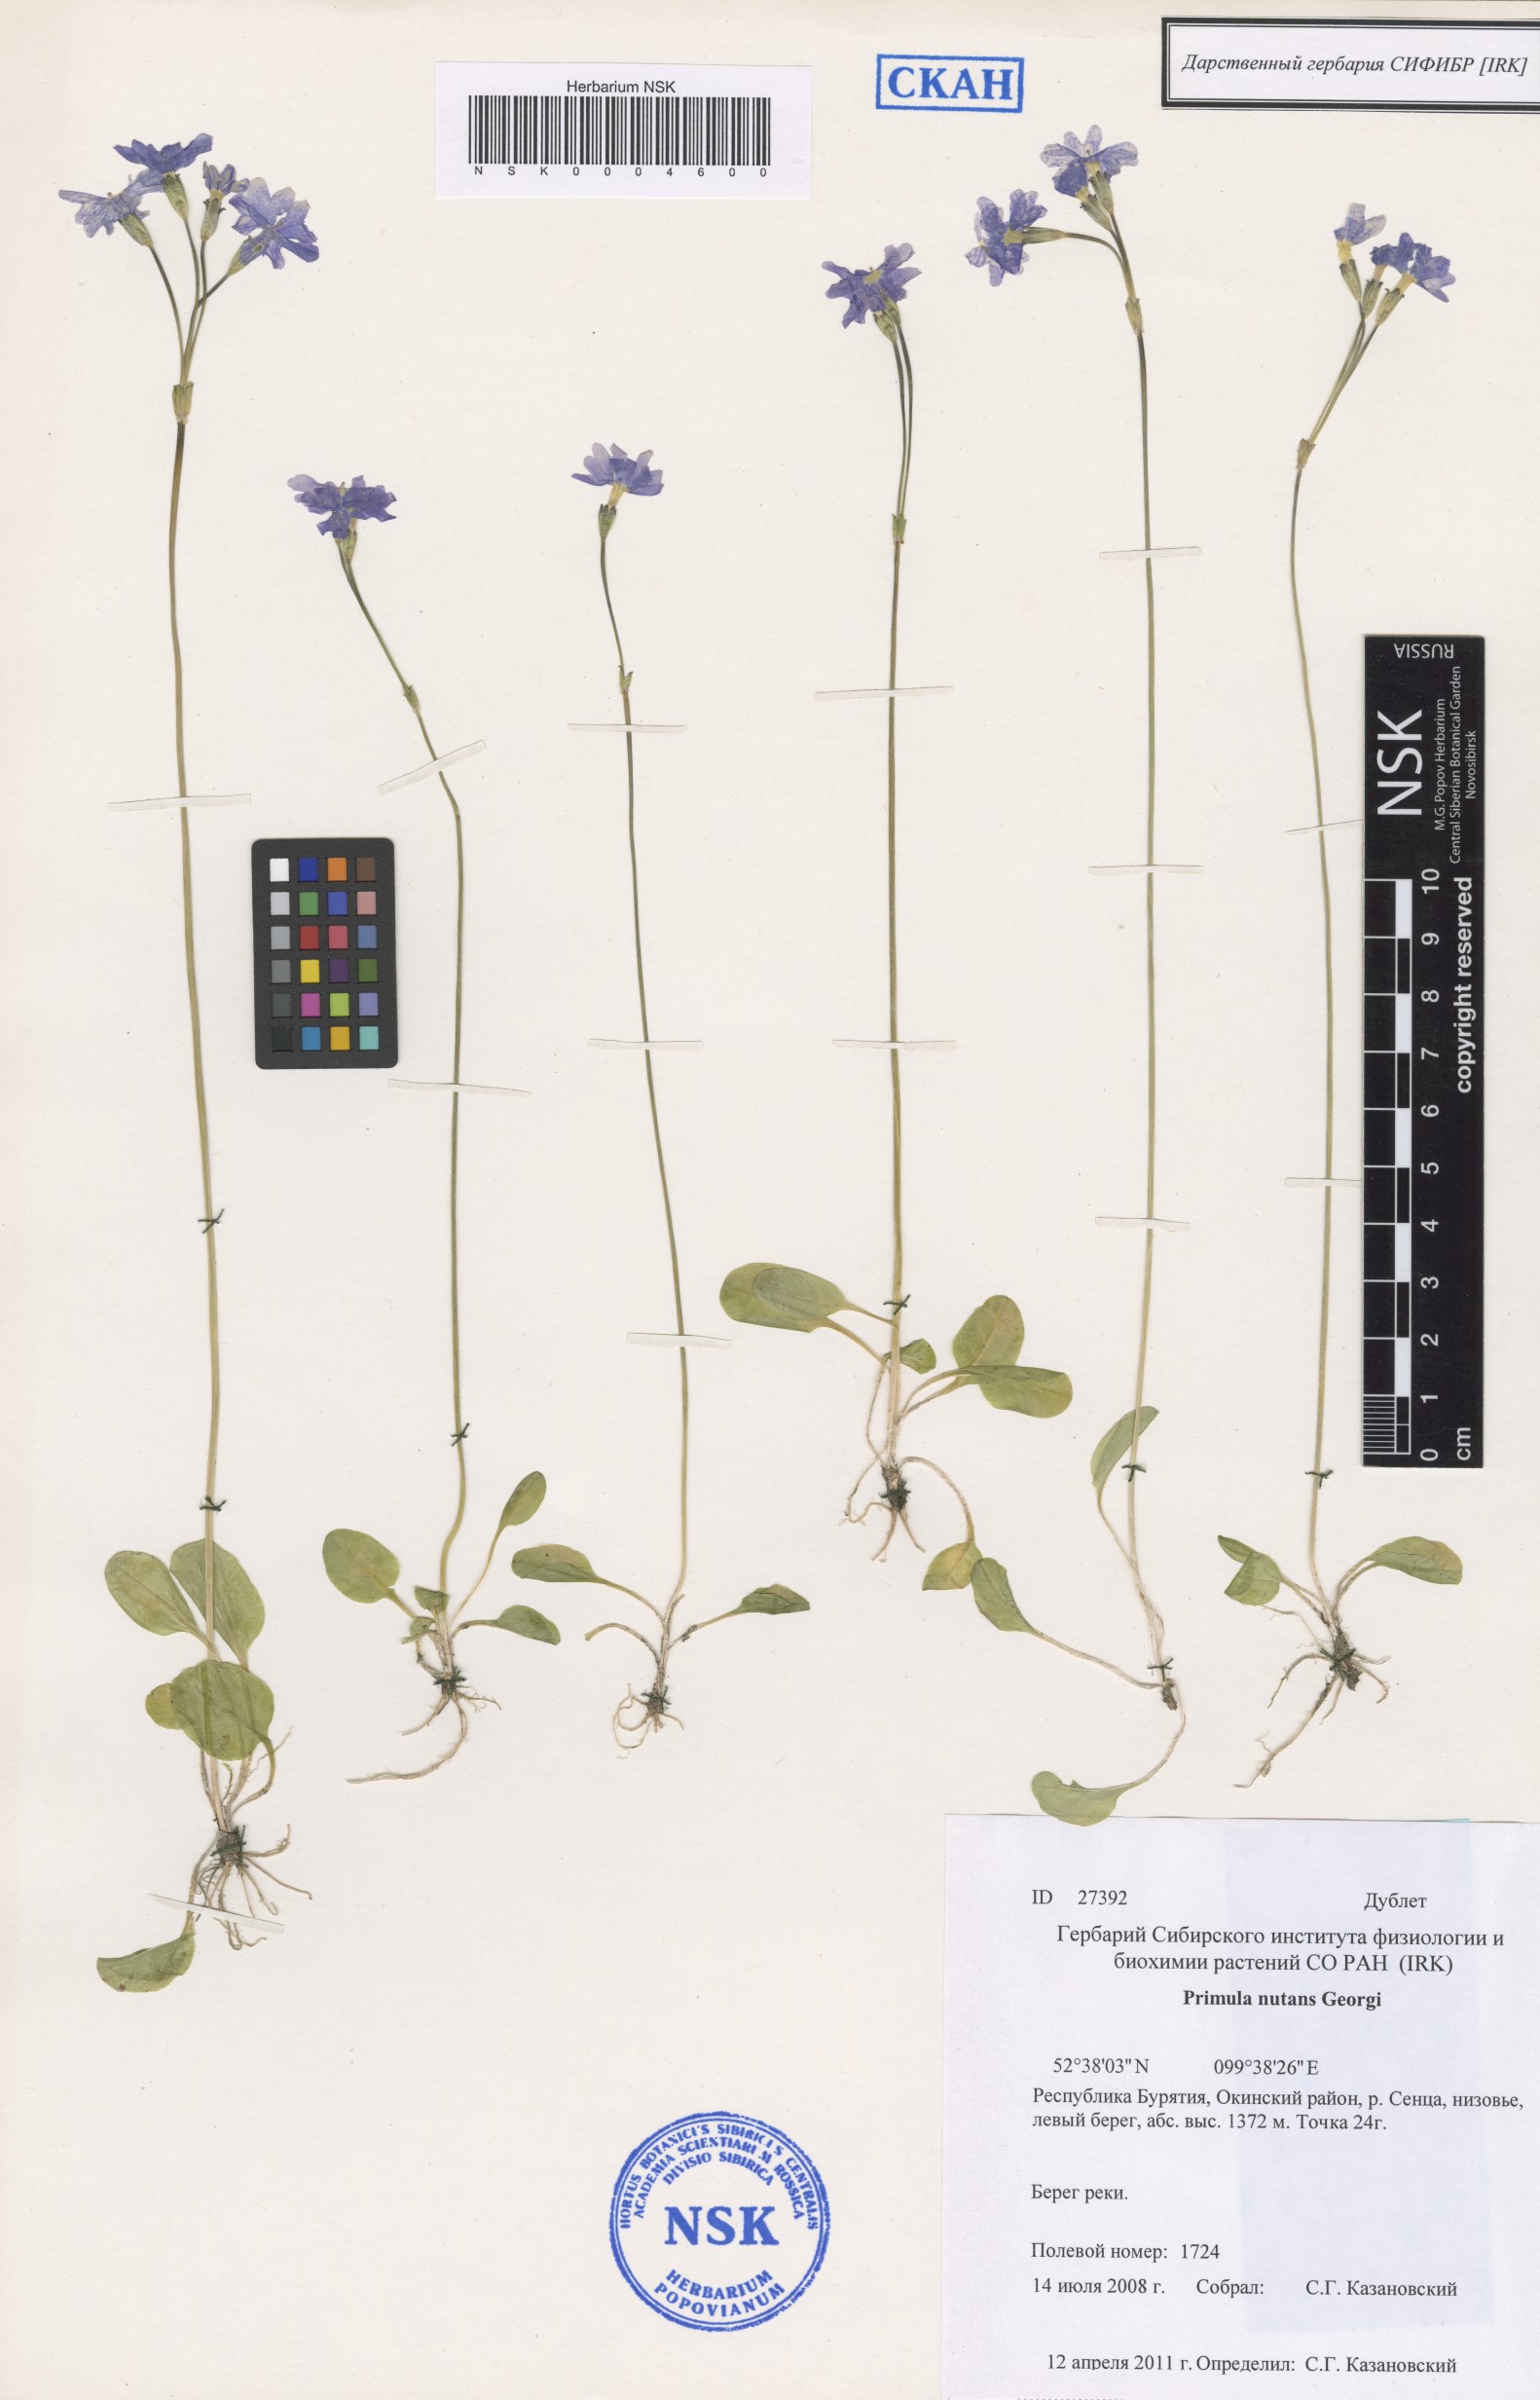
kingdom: Plantae
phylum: Tracheophyta
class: Magnoliopsida
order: Ericales
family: Primulaceae
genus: Primula
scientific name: Primula nutans
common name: Siberian primrose
